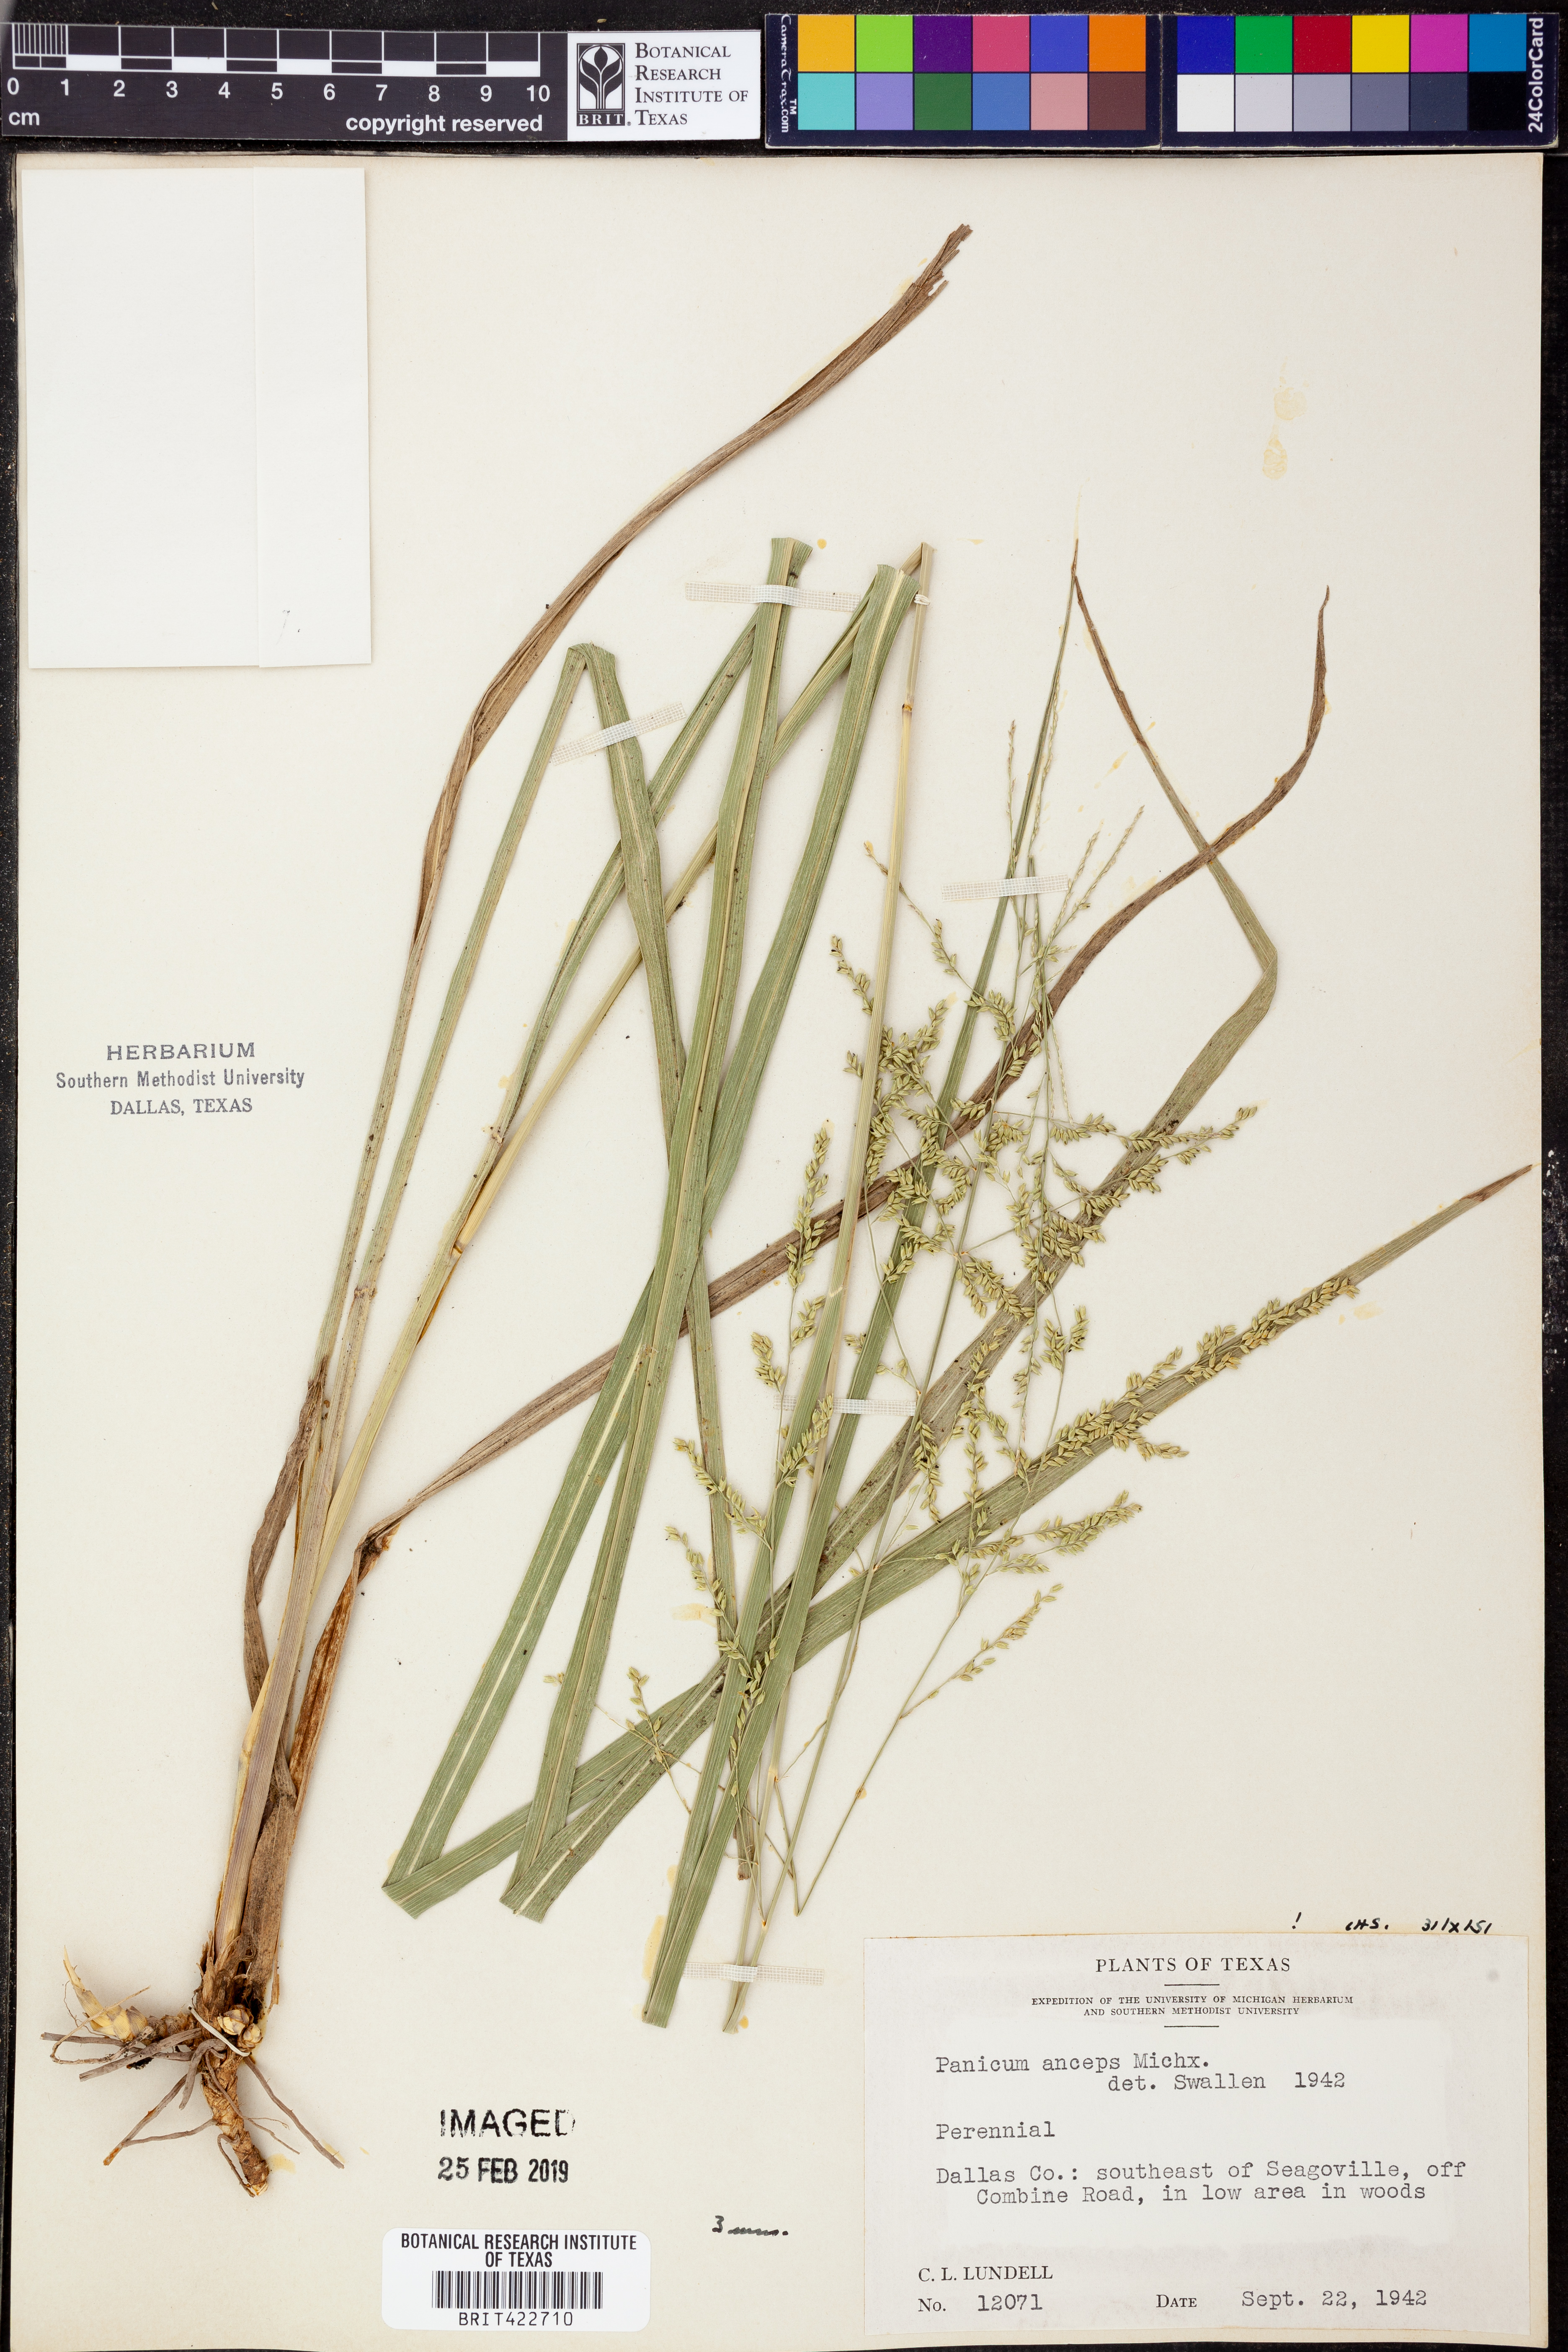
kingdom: Plantae
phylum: Tracheophyta
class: Liliopsida
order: Poales
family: Poaceae
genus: Coleataenia
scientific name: Coleataenia anceps
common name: Beaked panic grass
